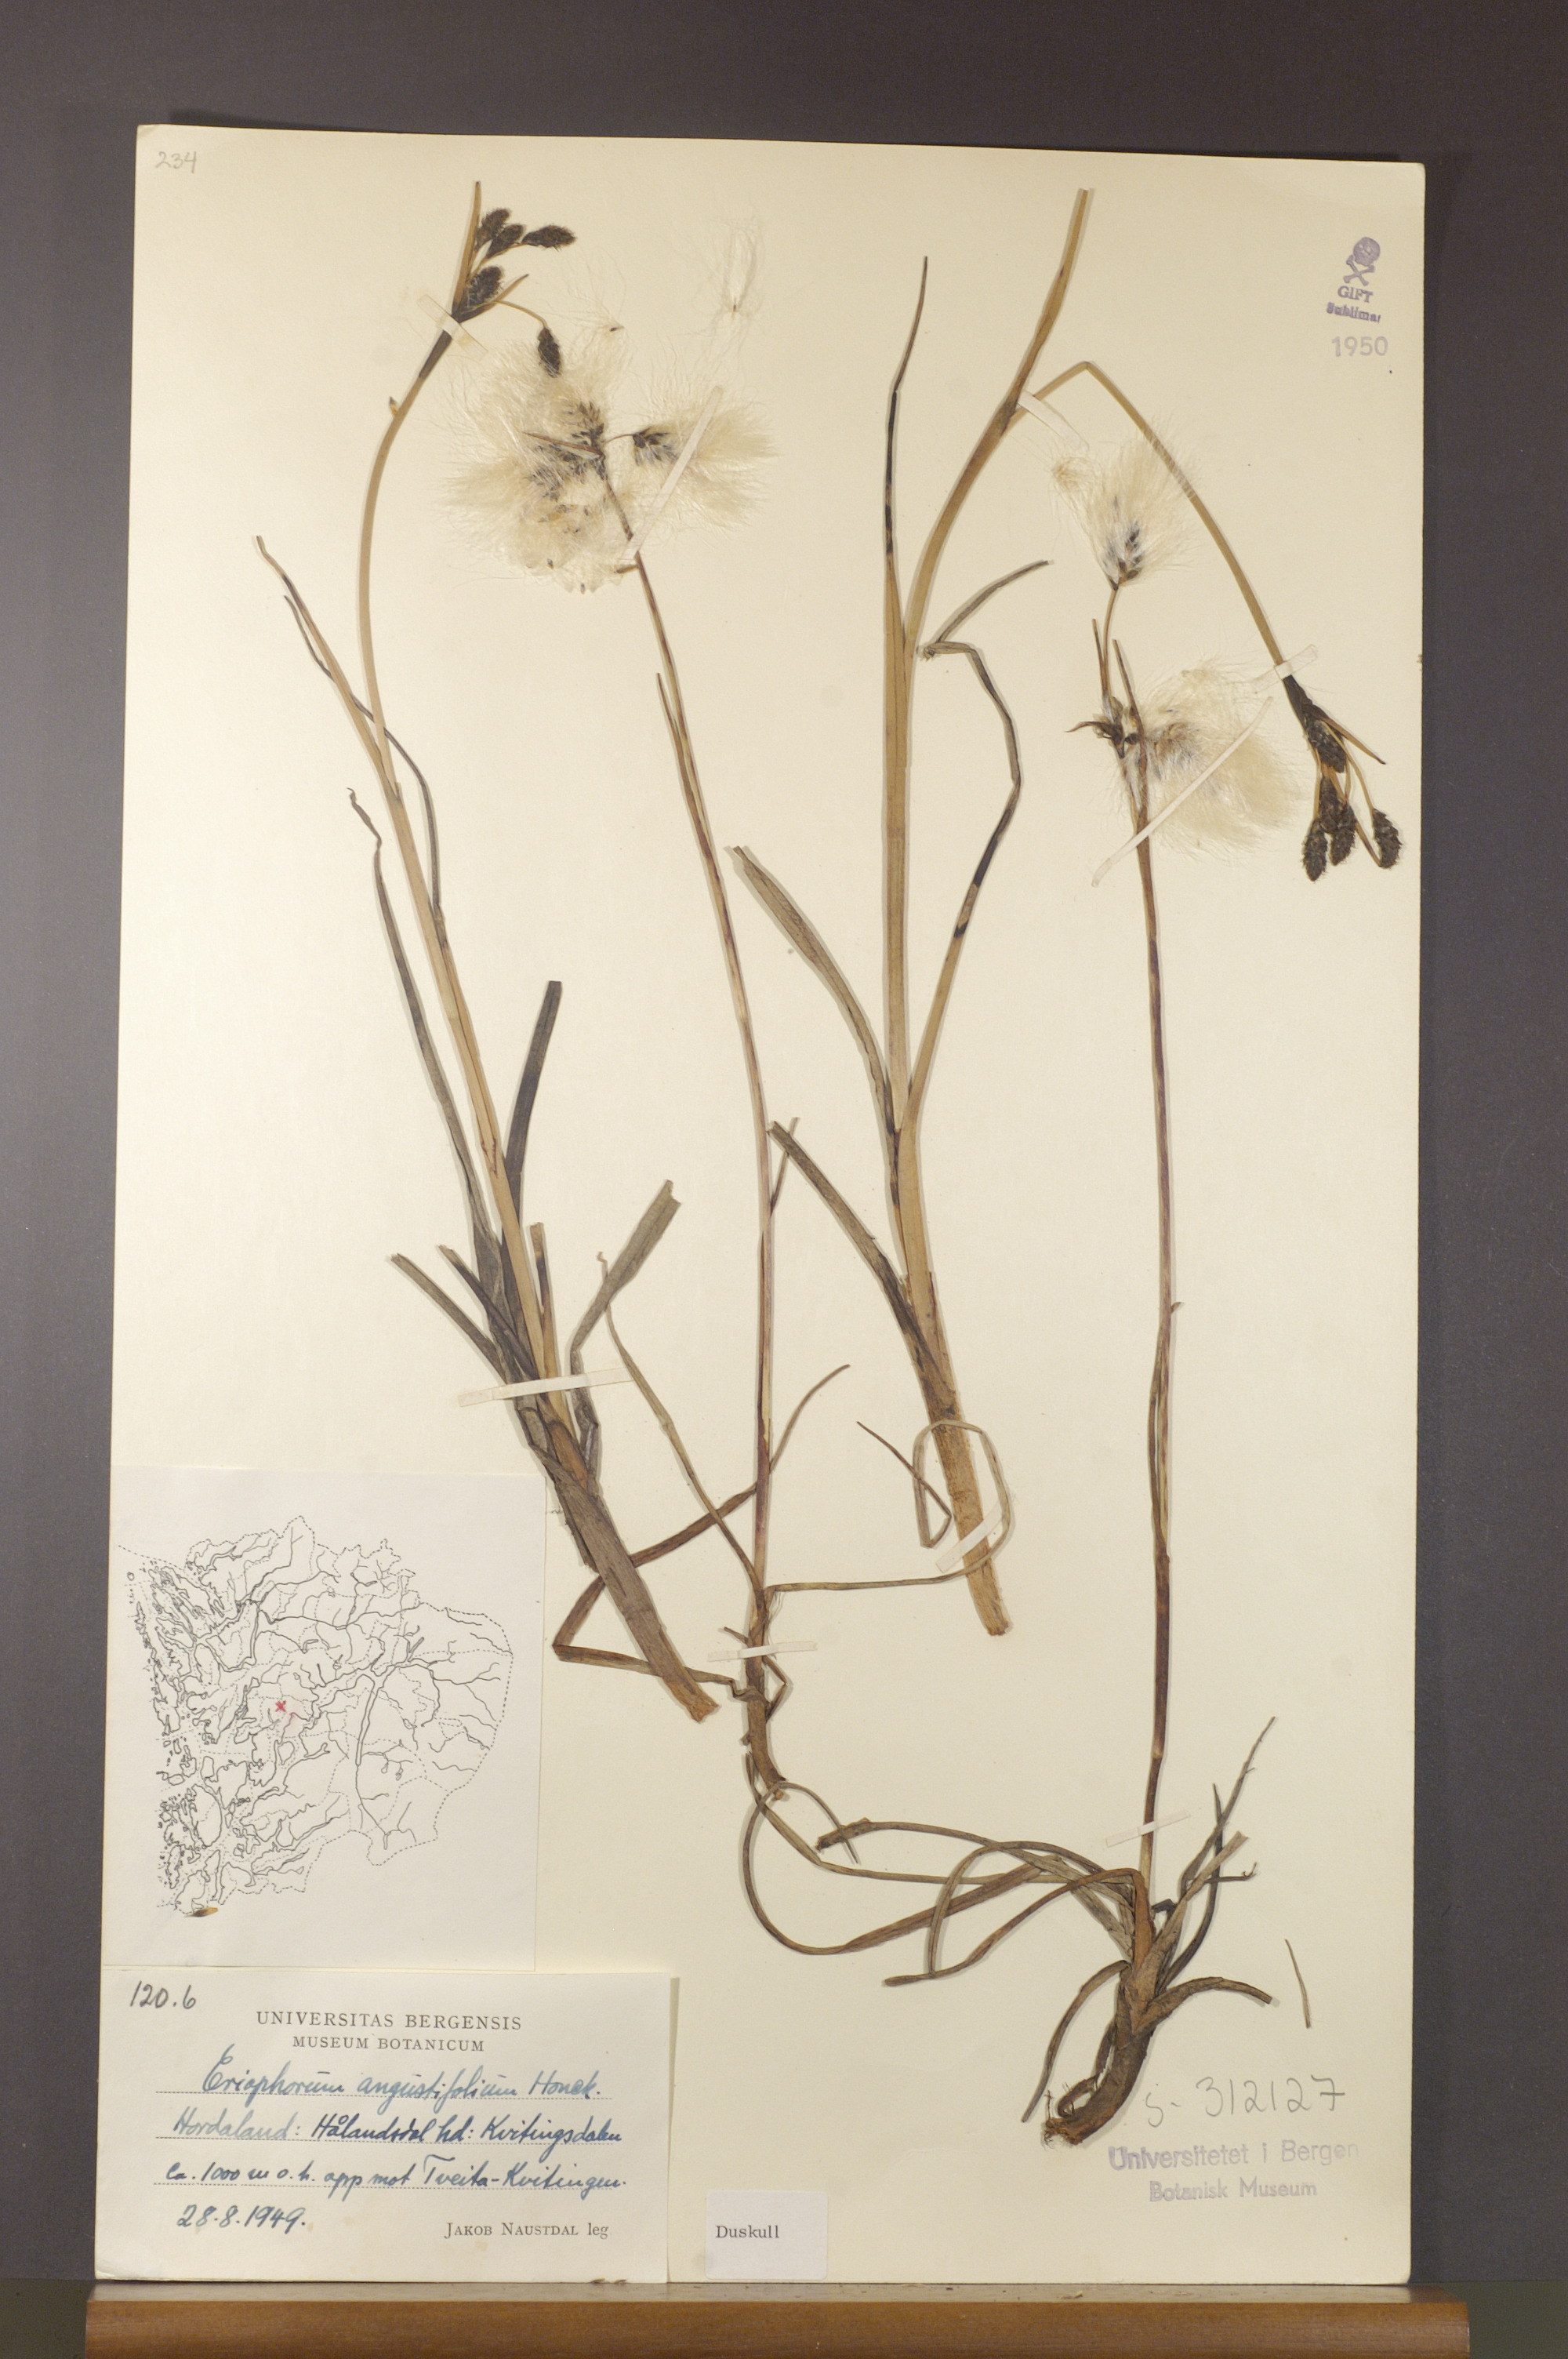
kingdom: Plantae
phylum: Tracheophyta
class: Liliopsida
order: Poales
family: Cyperaceae
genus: Eriophorum
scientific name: Eriophorum angustifolium
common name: Common cottongrass
